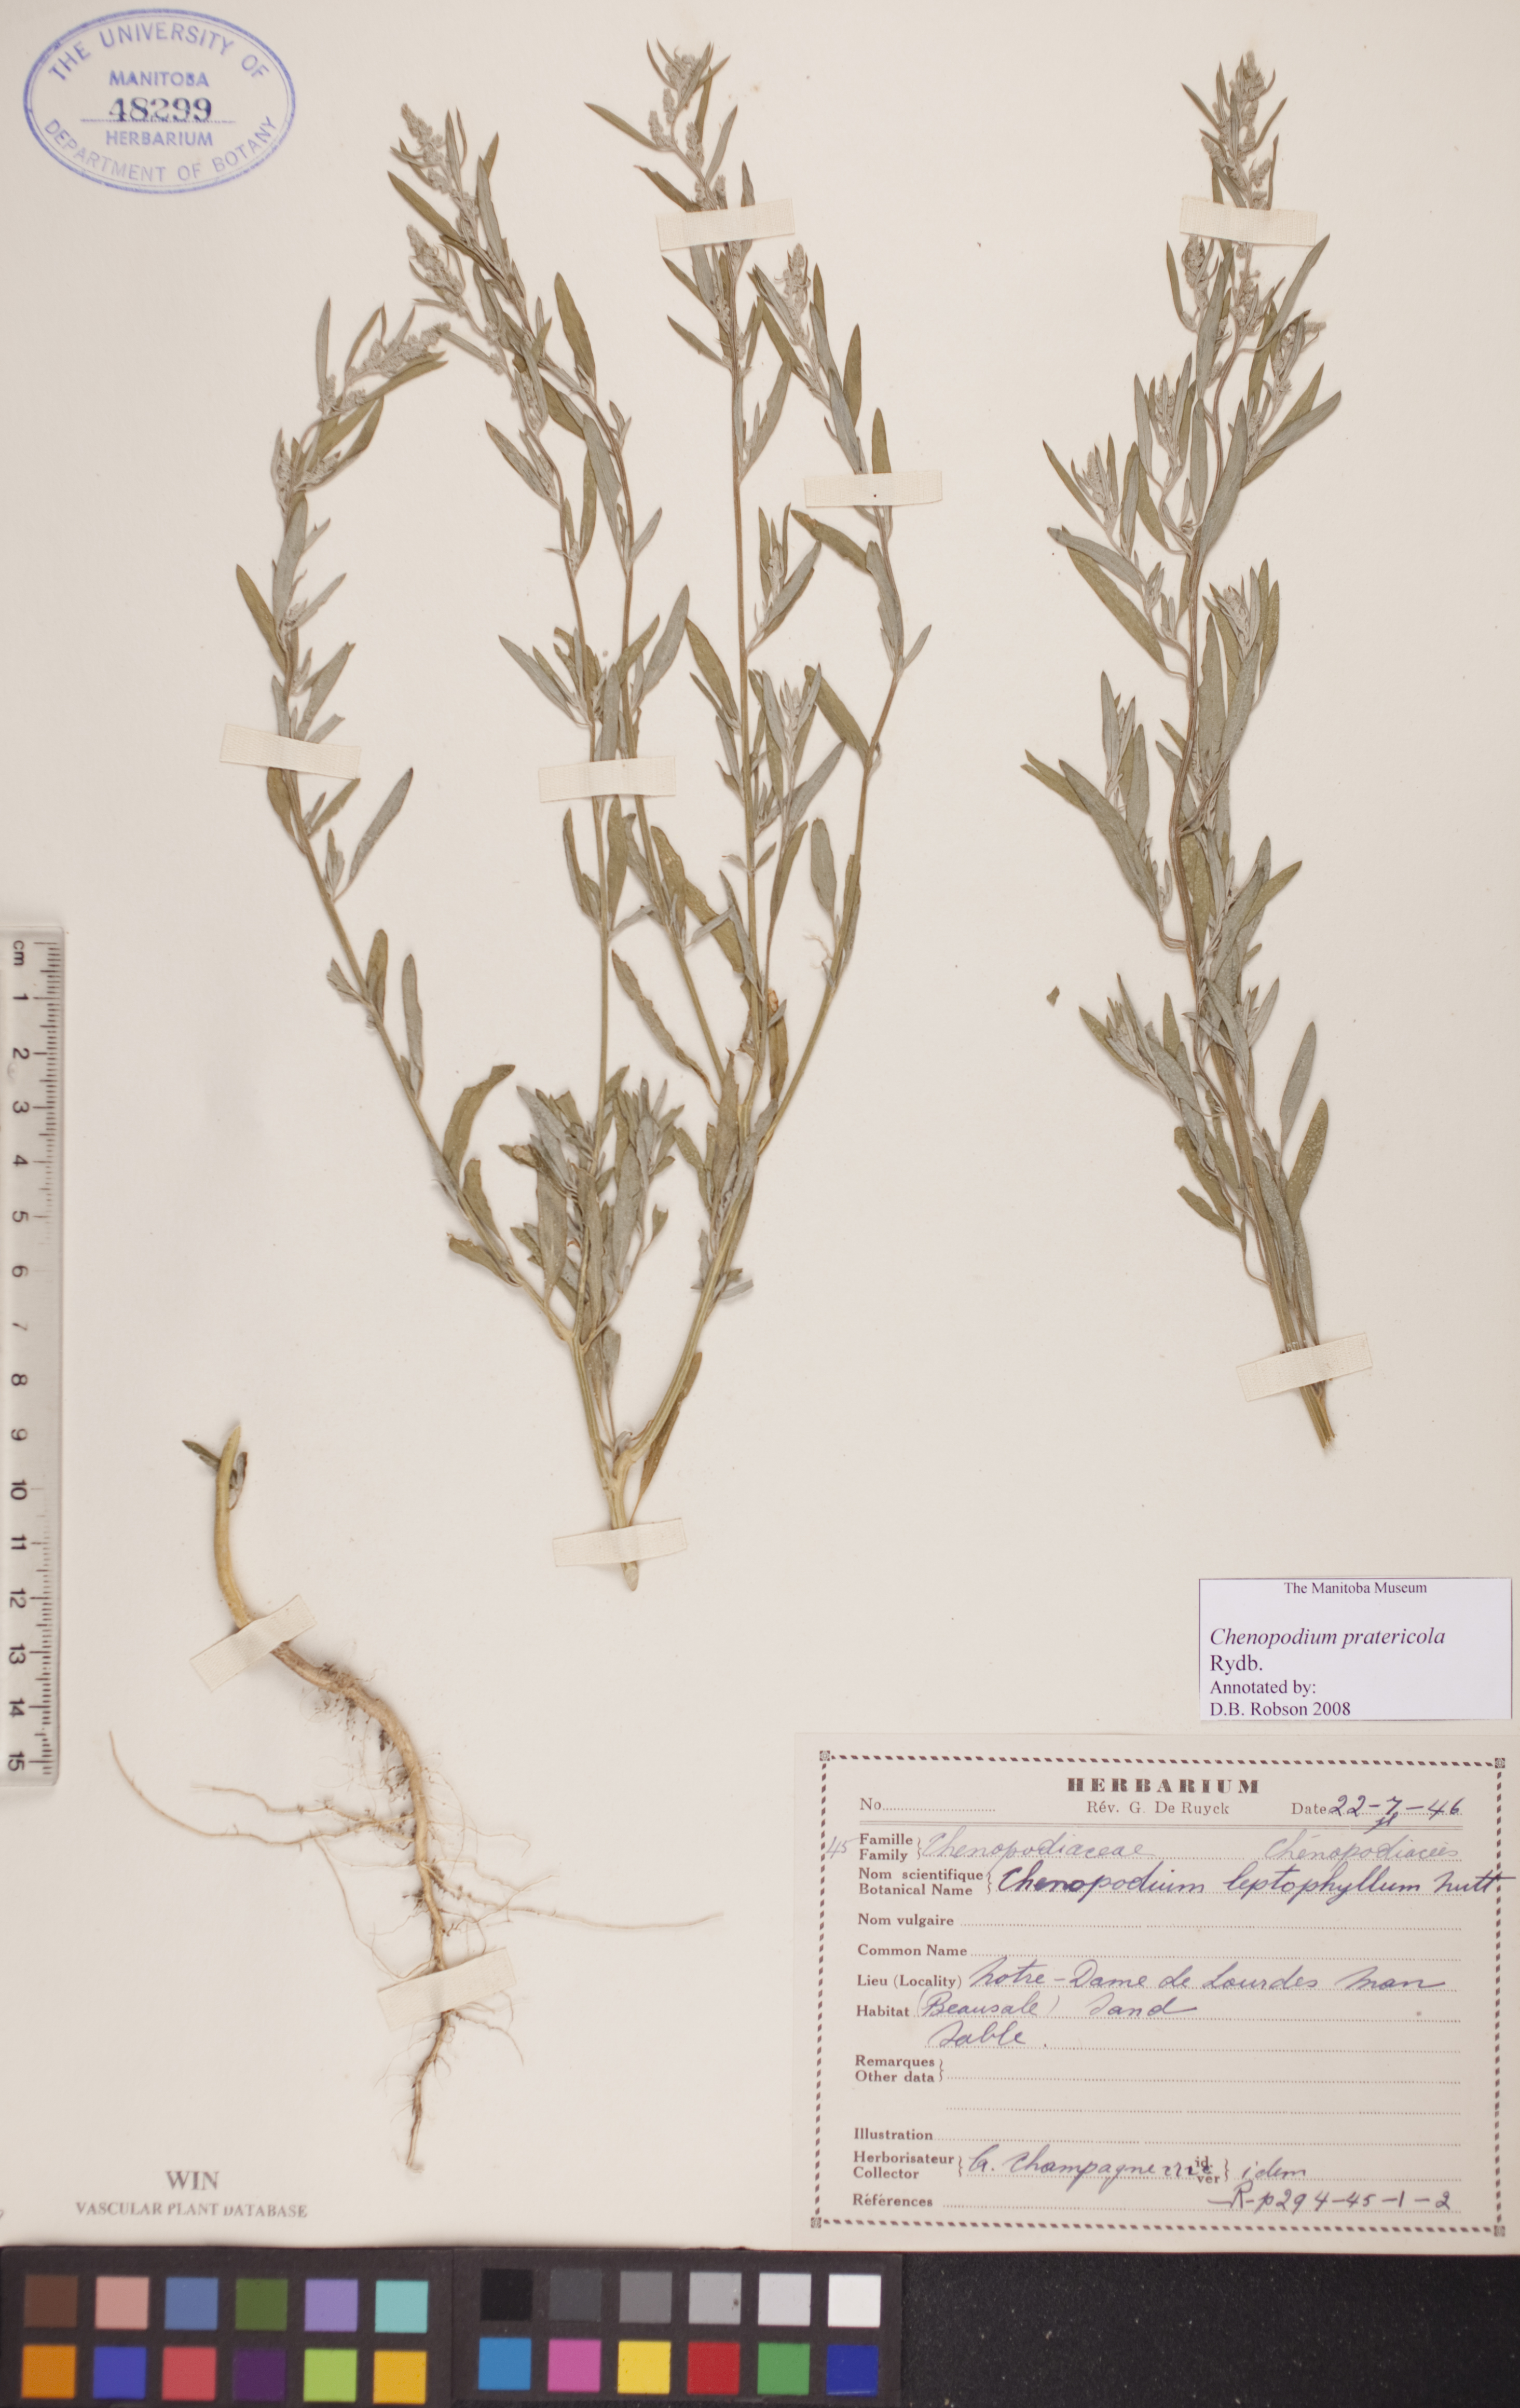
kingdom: Plantae
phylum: Tracheophyta
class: Magnoliopsida
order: Caryophyllales
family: Amaranthaceae
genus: Chenopodium
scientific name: Chenopodium pratericola
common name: Desert goosefoot
